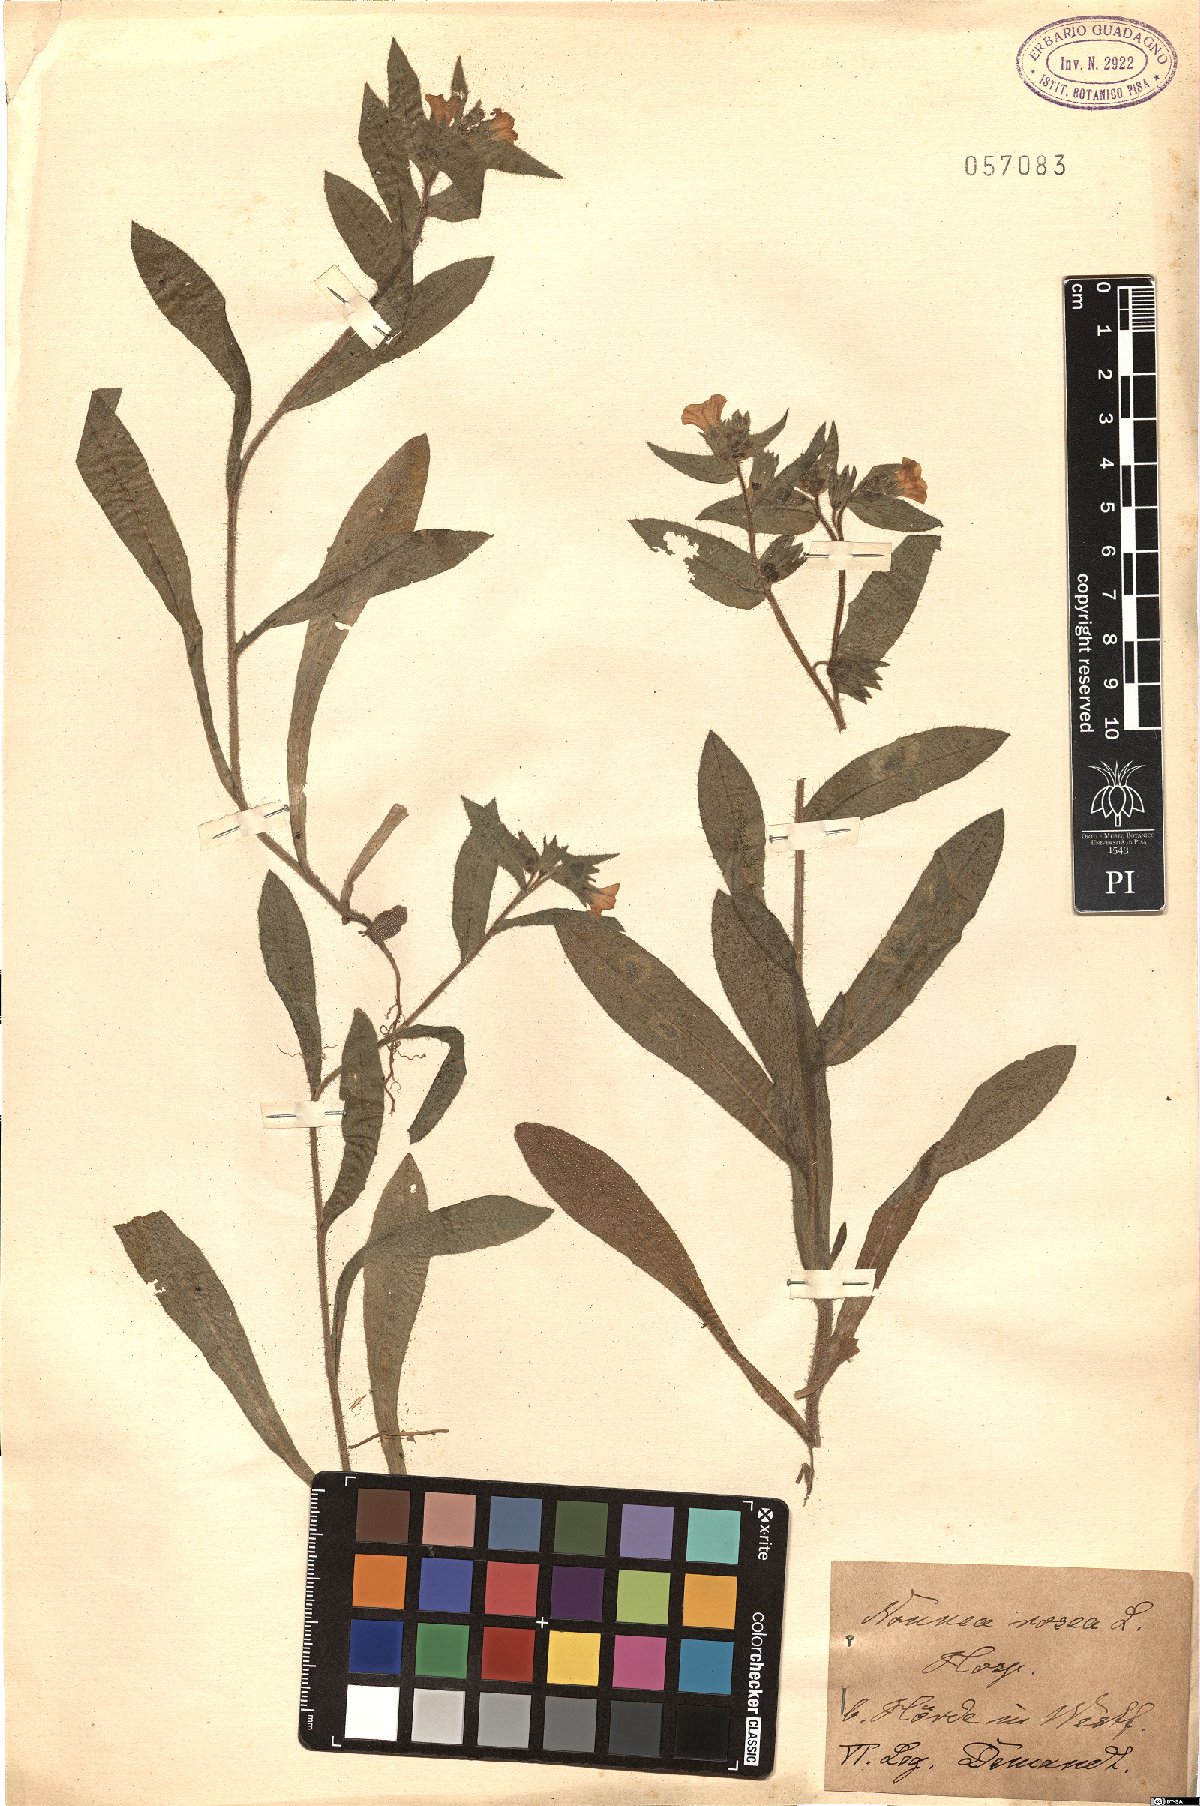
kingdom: Plantae
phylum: Tracheophyta
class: Magnoliopsida
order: Boraginales
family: Boraginaceae
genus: Nonea
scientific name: Nonea rosea
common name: Pink nonea
